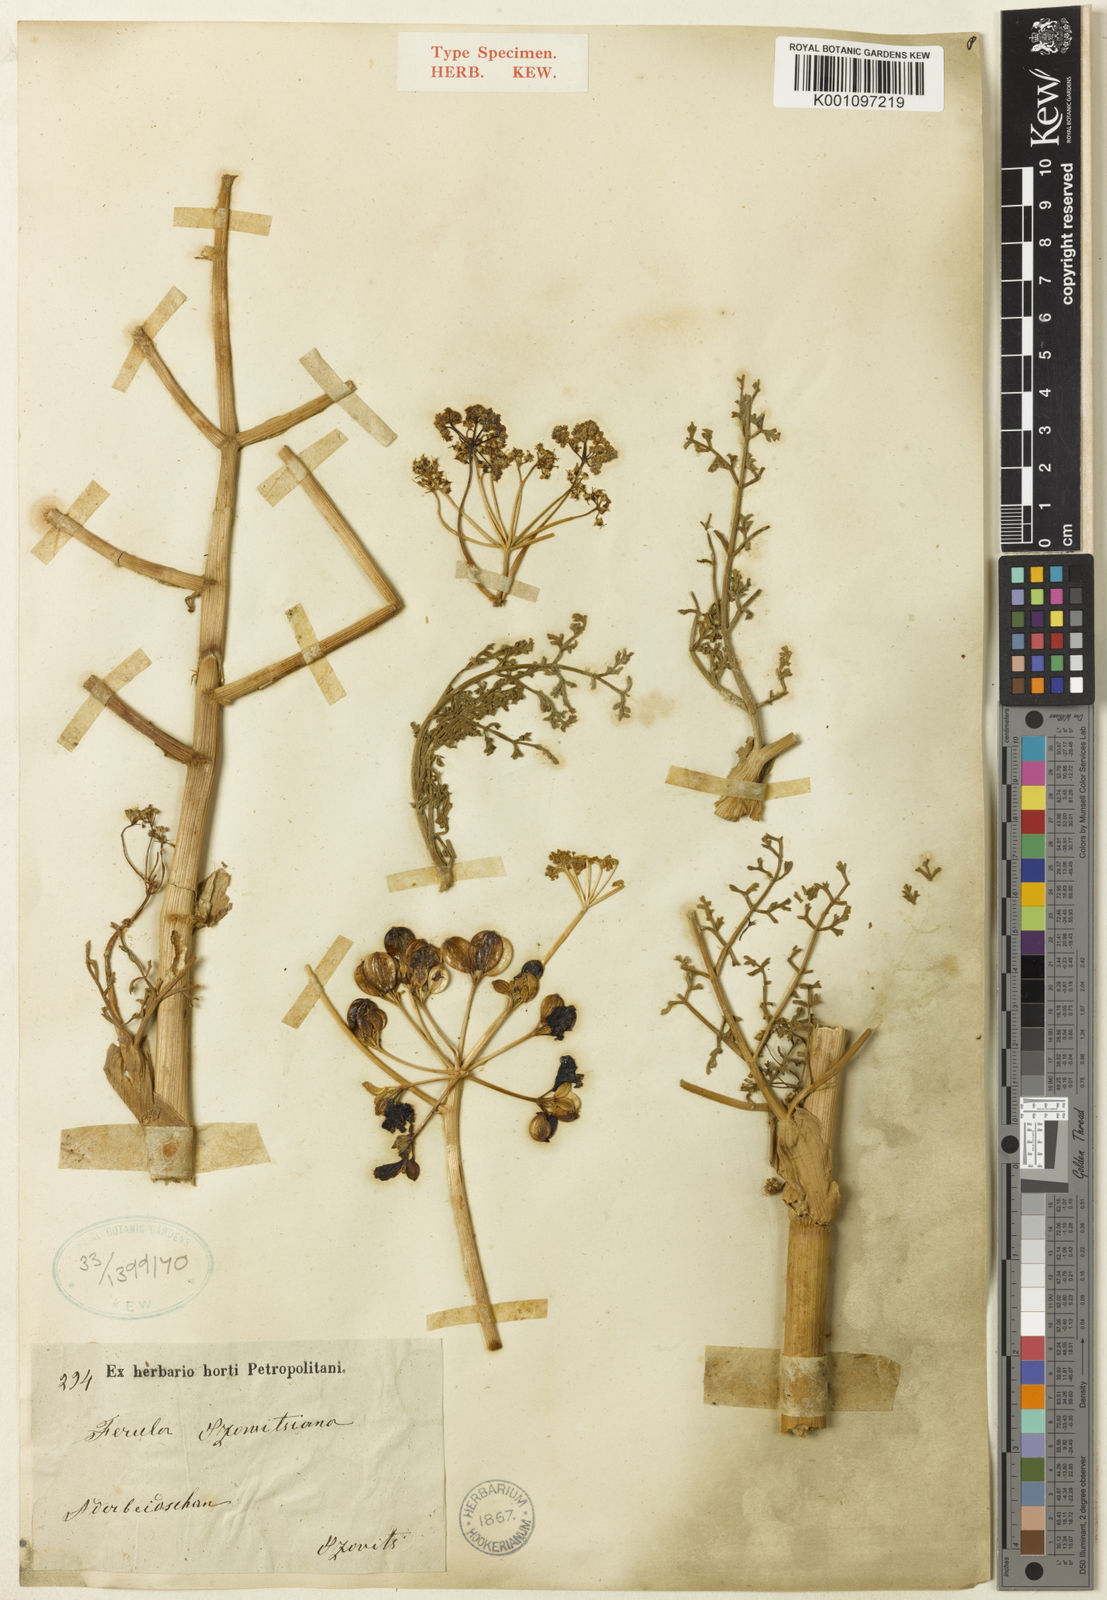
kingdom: Plantae
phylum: Tracheophyta
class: Magnoliopsida
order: Apiales
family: Apiaceae
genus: Ferula
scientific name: Ferula szowitsiana
